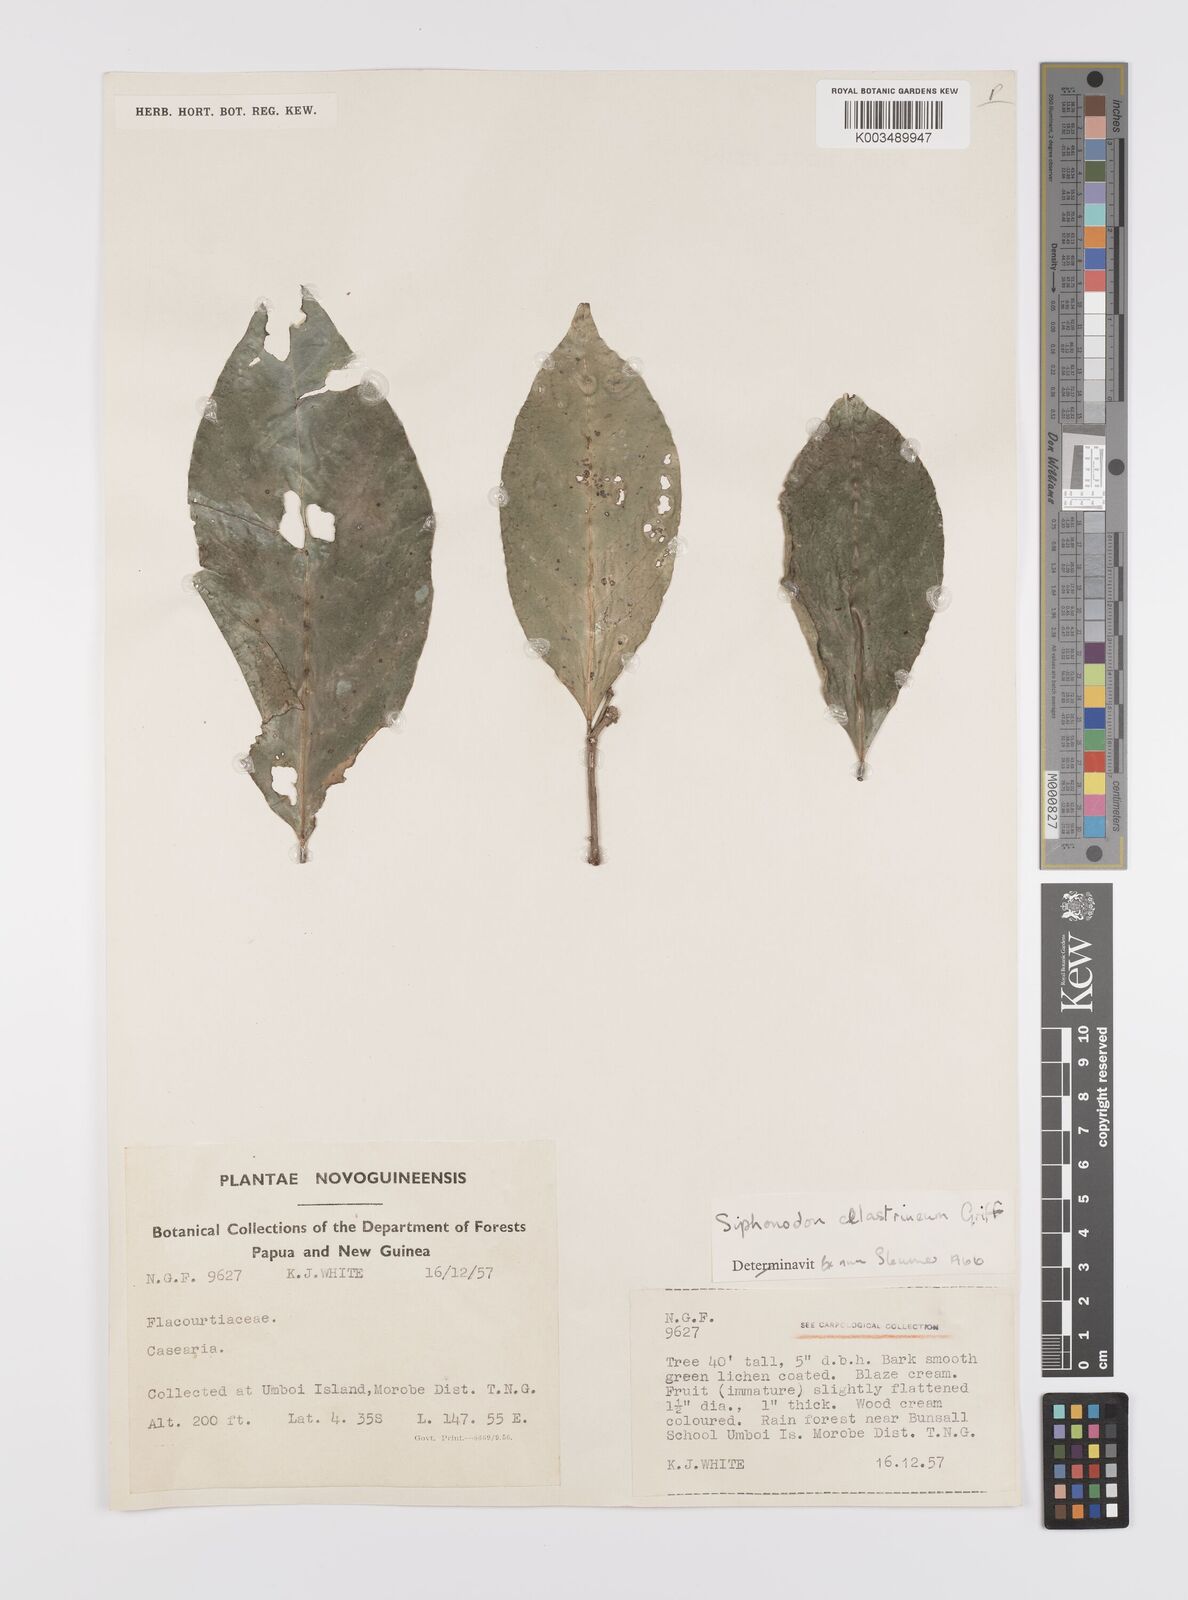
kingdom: Plantae
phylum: Tracheophyta
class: Magnoliopsida
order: Celastrales
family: Celastraceae
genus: Siphonodon
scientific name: Siphonodon celastrineus
